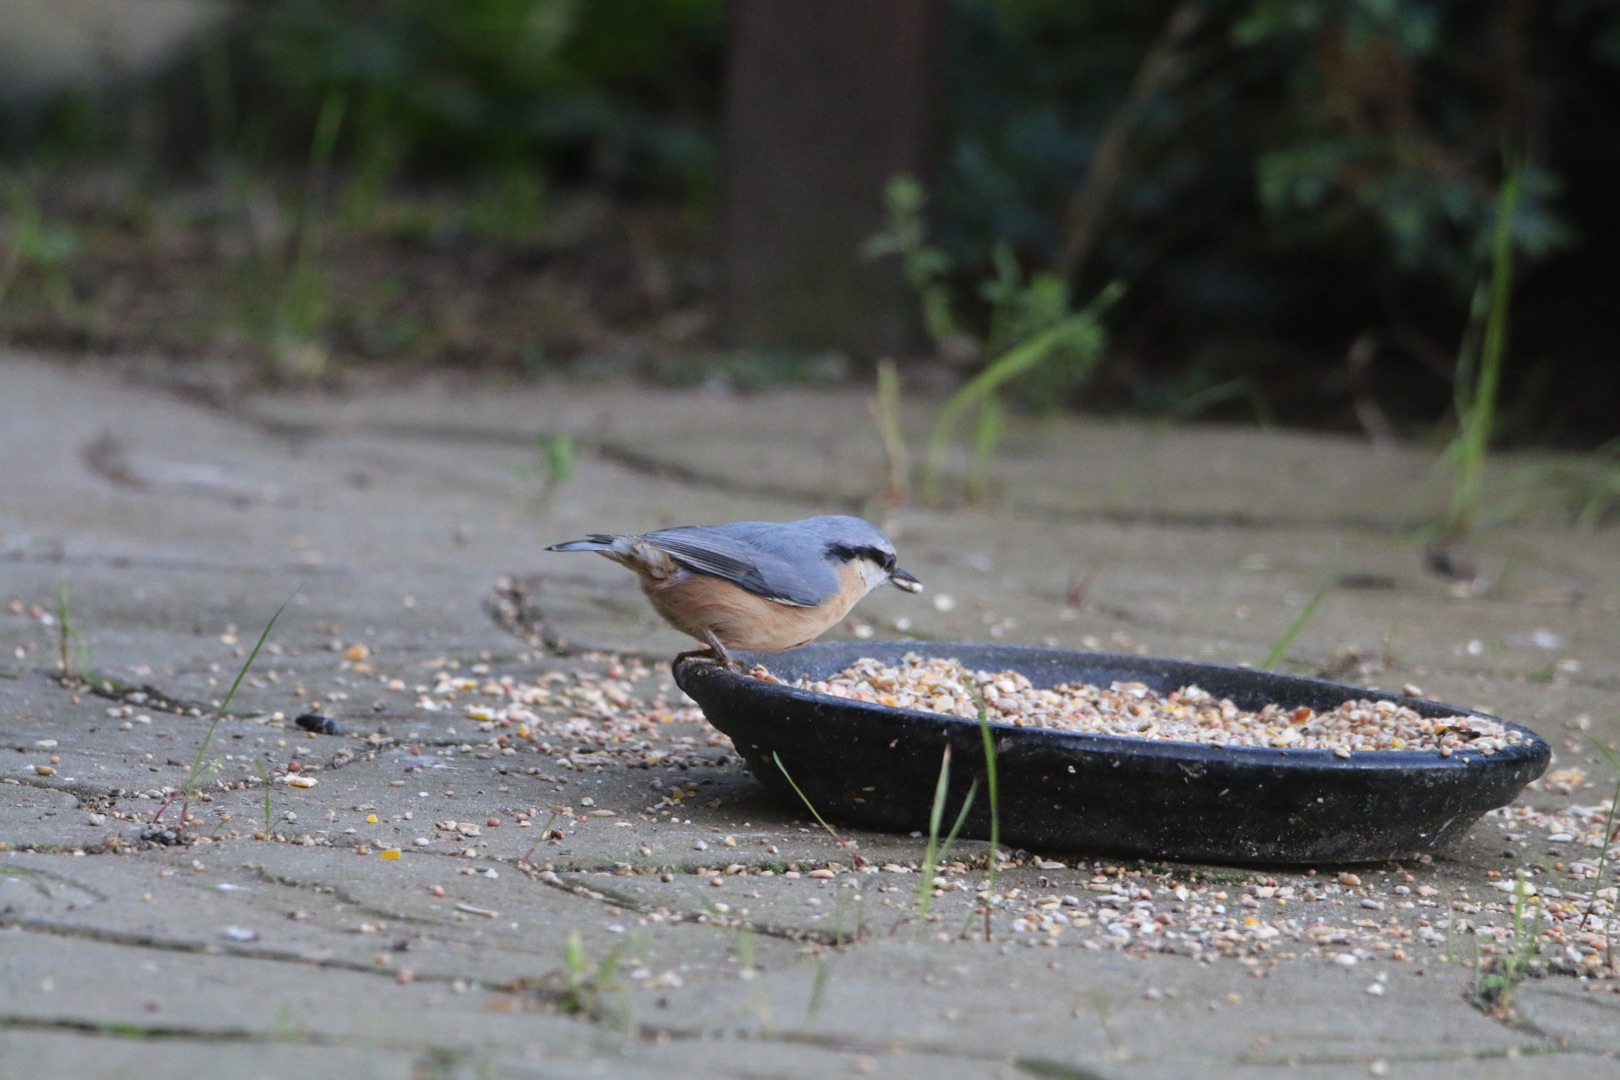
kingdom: Animalia
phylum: Chordata
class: Aves
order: Passeriformes
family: Sittidae
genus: Sitta
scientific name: Sitta europaea
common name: Spætmejse
